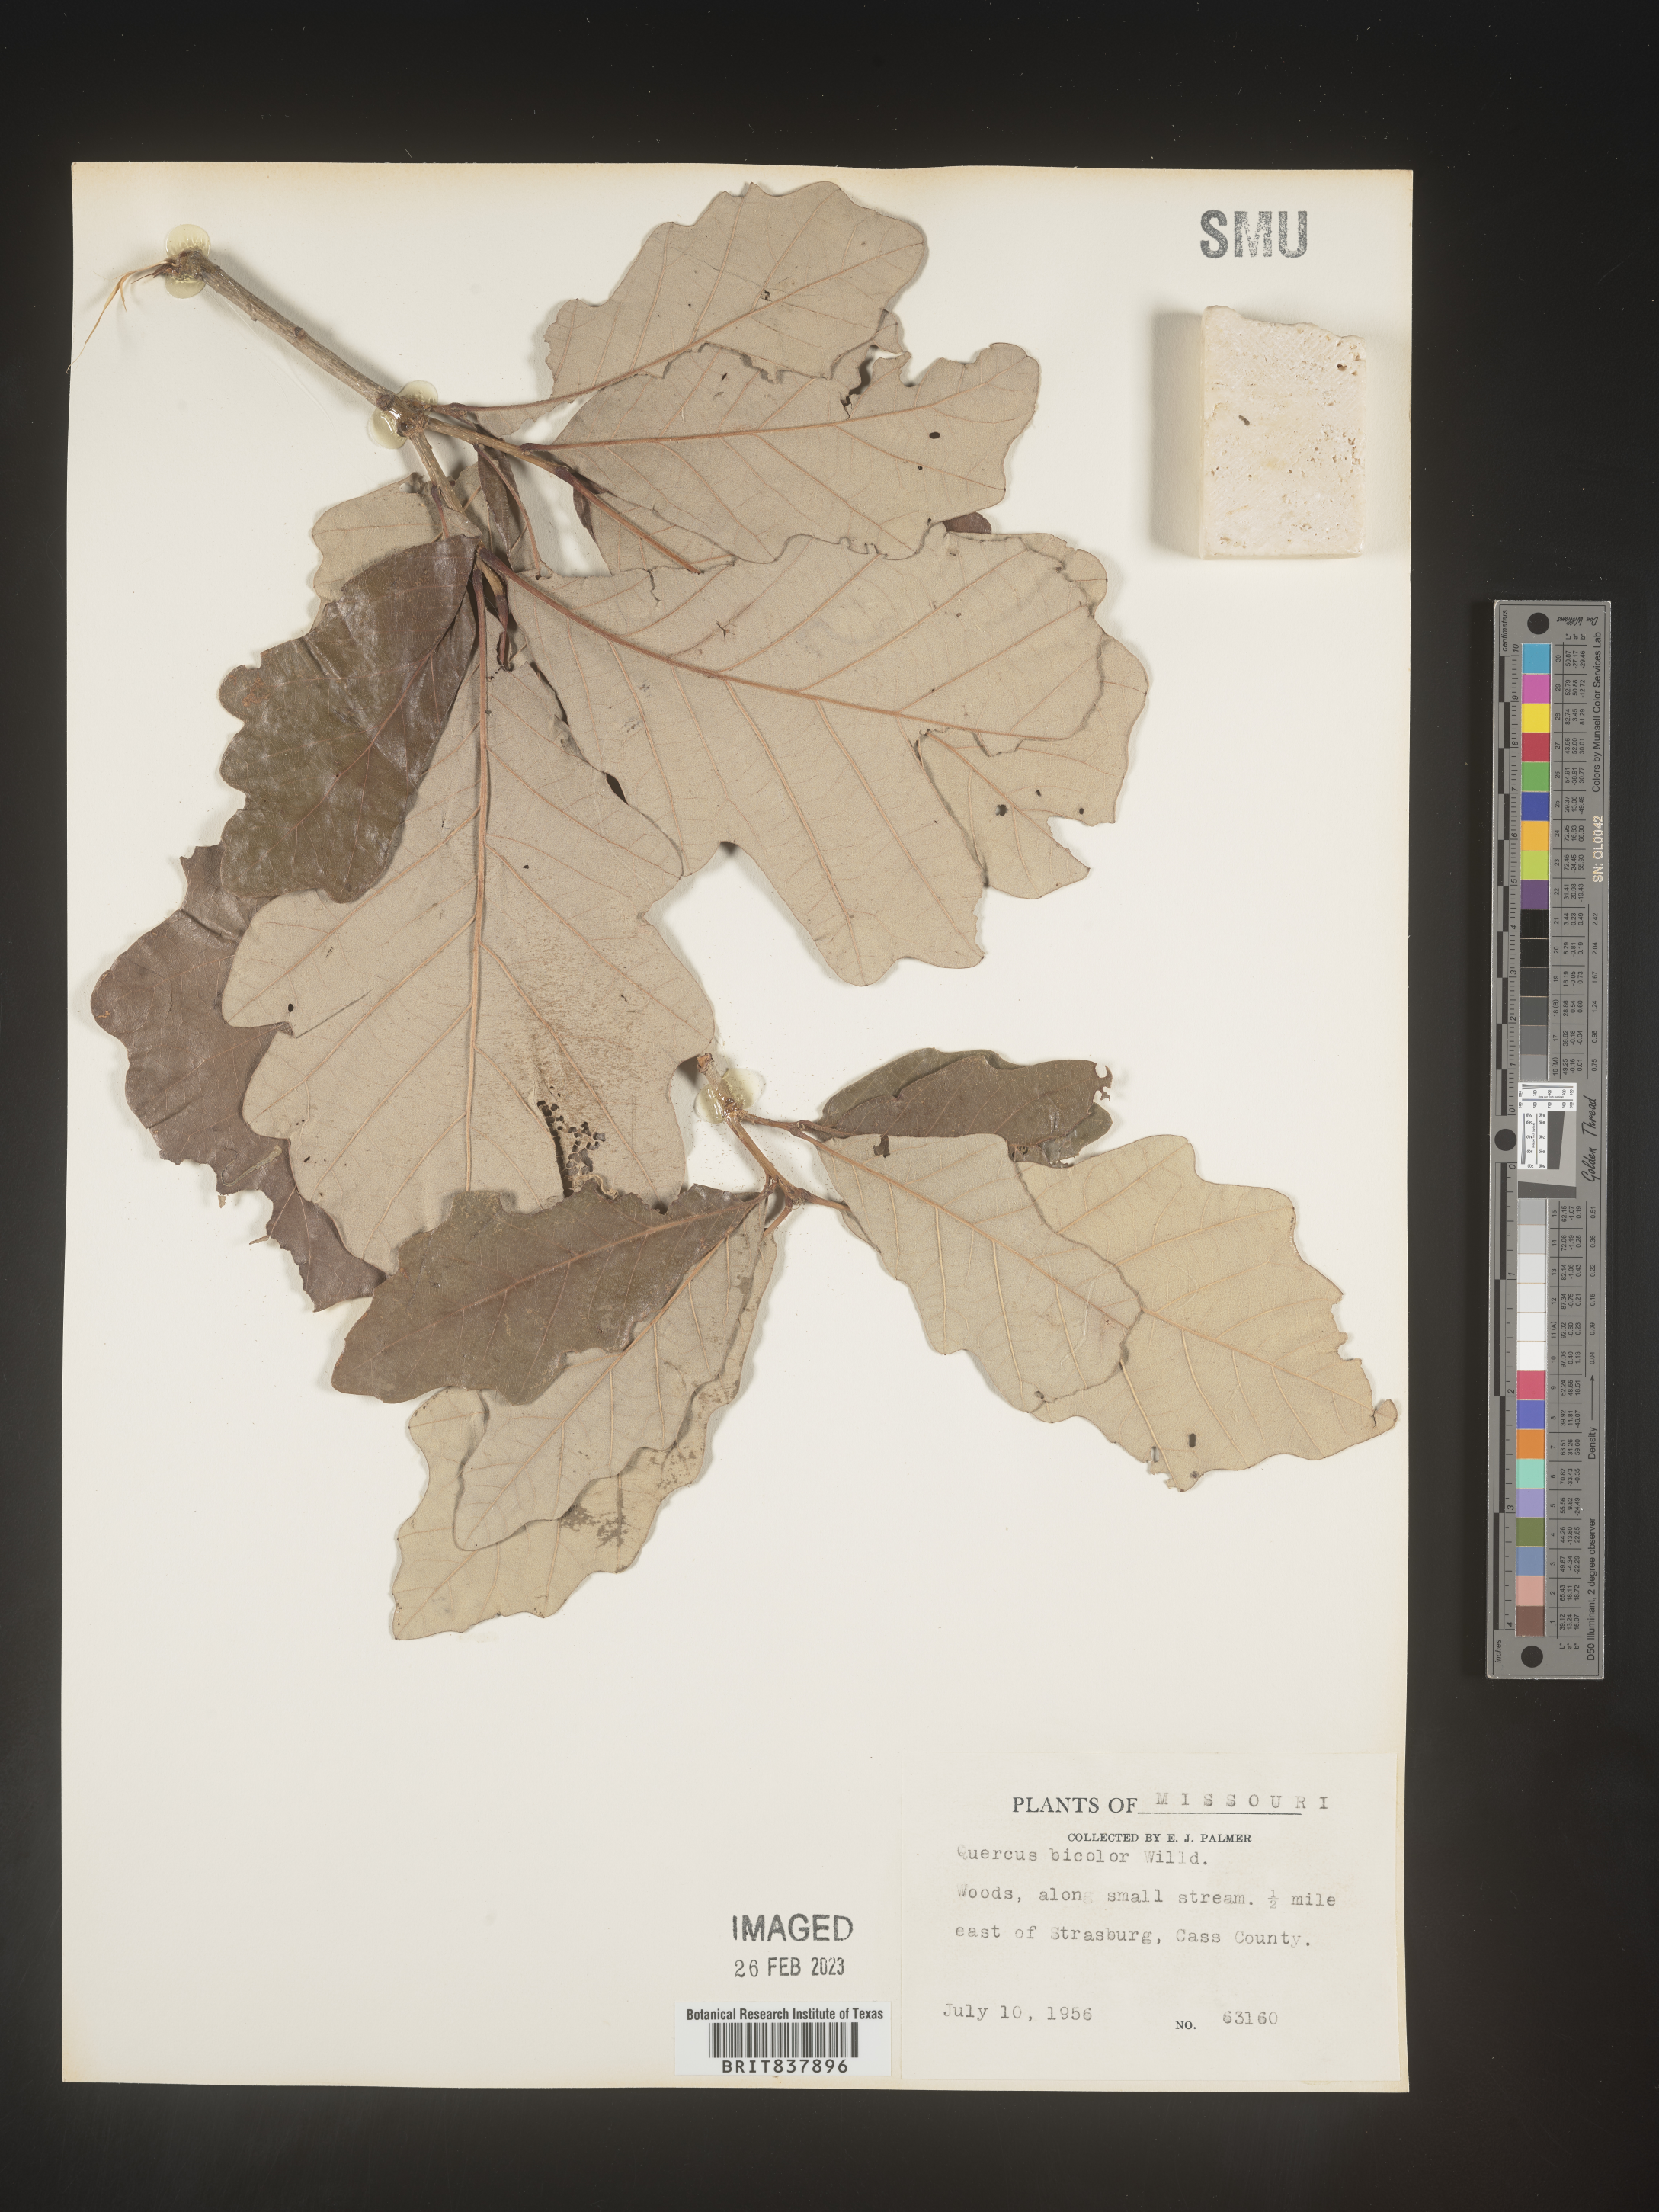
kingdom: Plantae
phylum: Tracheophyta
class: Magnoliopsida
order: Fagales
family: Fagaceae
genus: Quercus
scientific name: Quercus bicolor
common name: Swamp white oak
